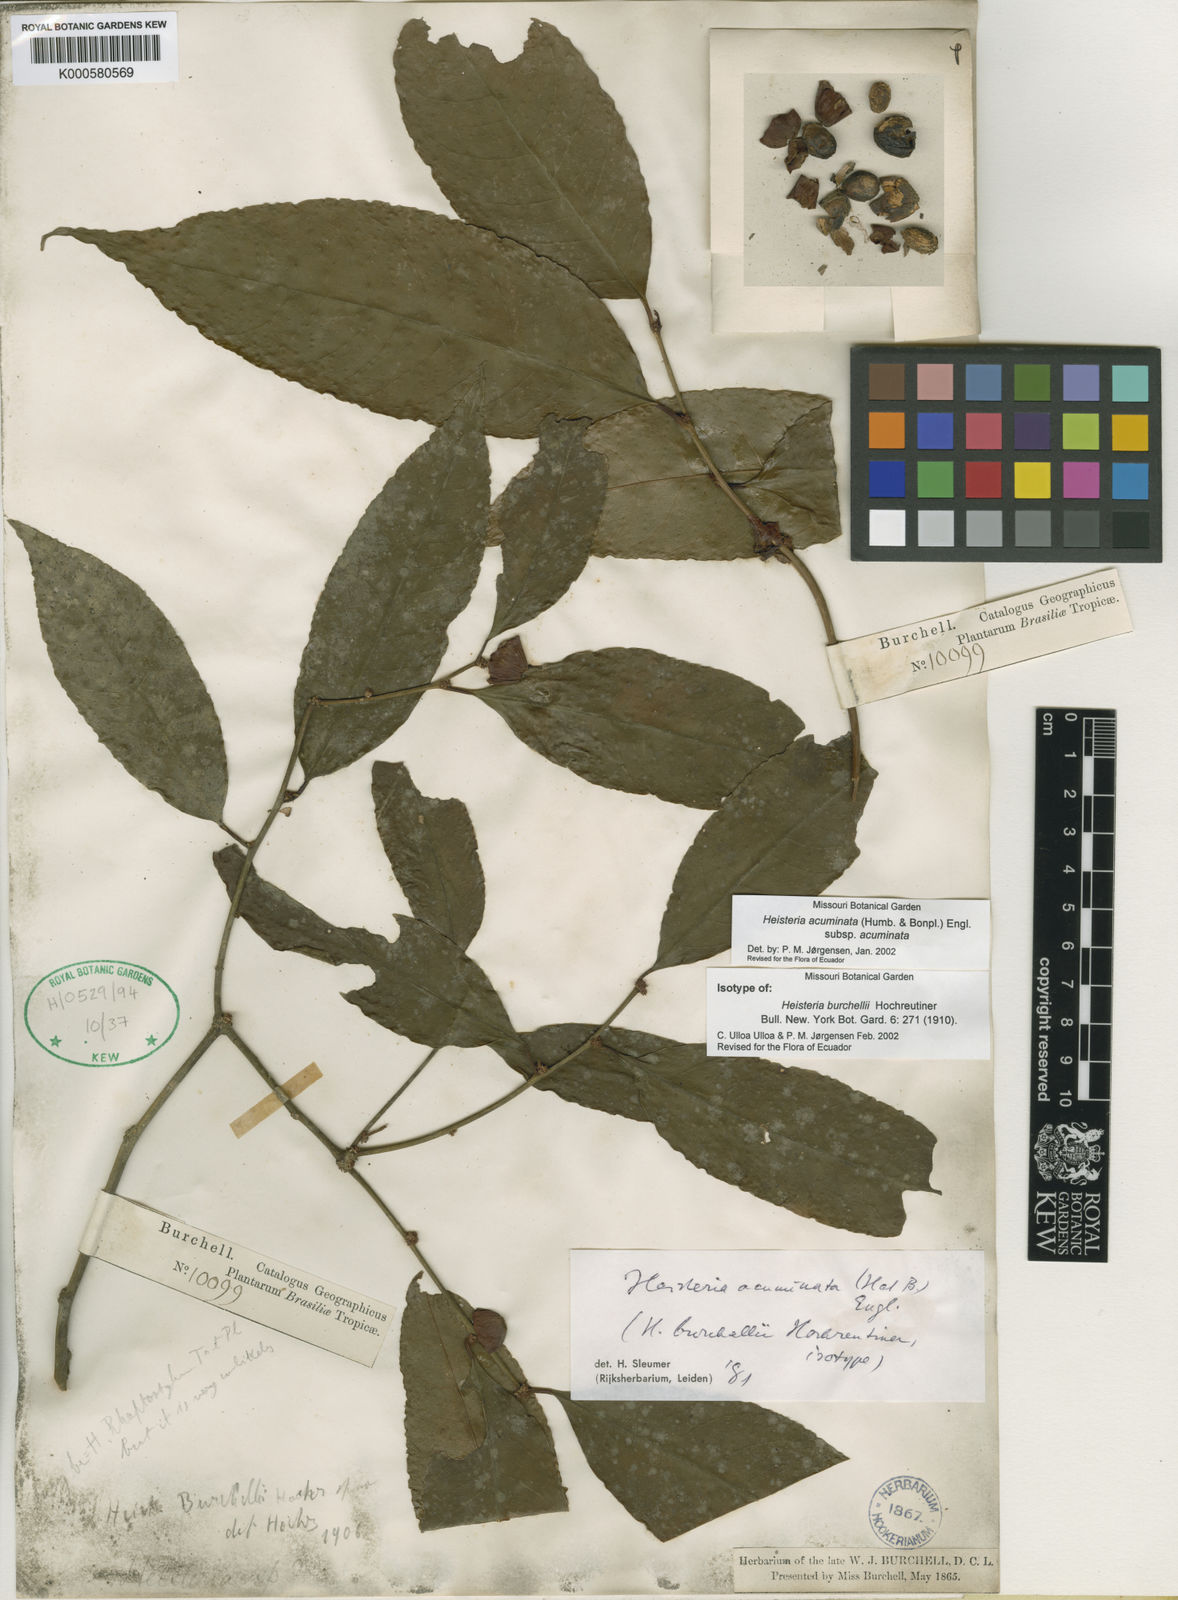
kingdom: Plantae
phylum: Tracheophyta
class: Magnoliopsida
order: Santalales
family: Erythropalaceae
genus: Heisteria
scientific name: Heisteria acuminata
